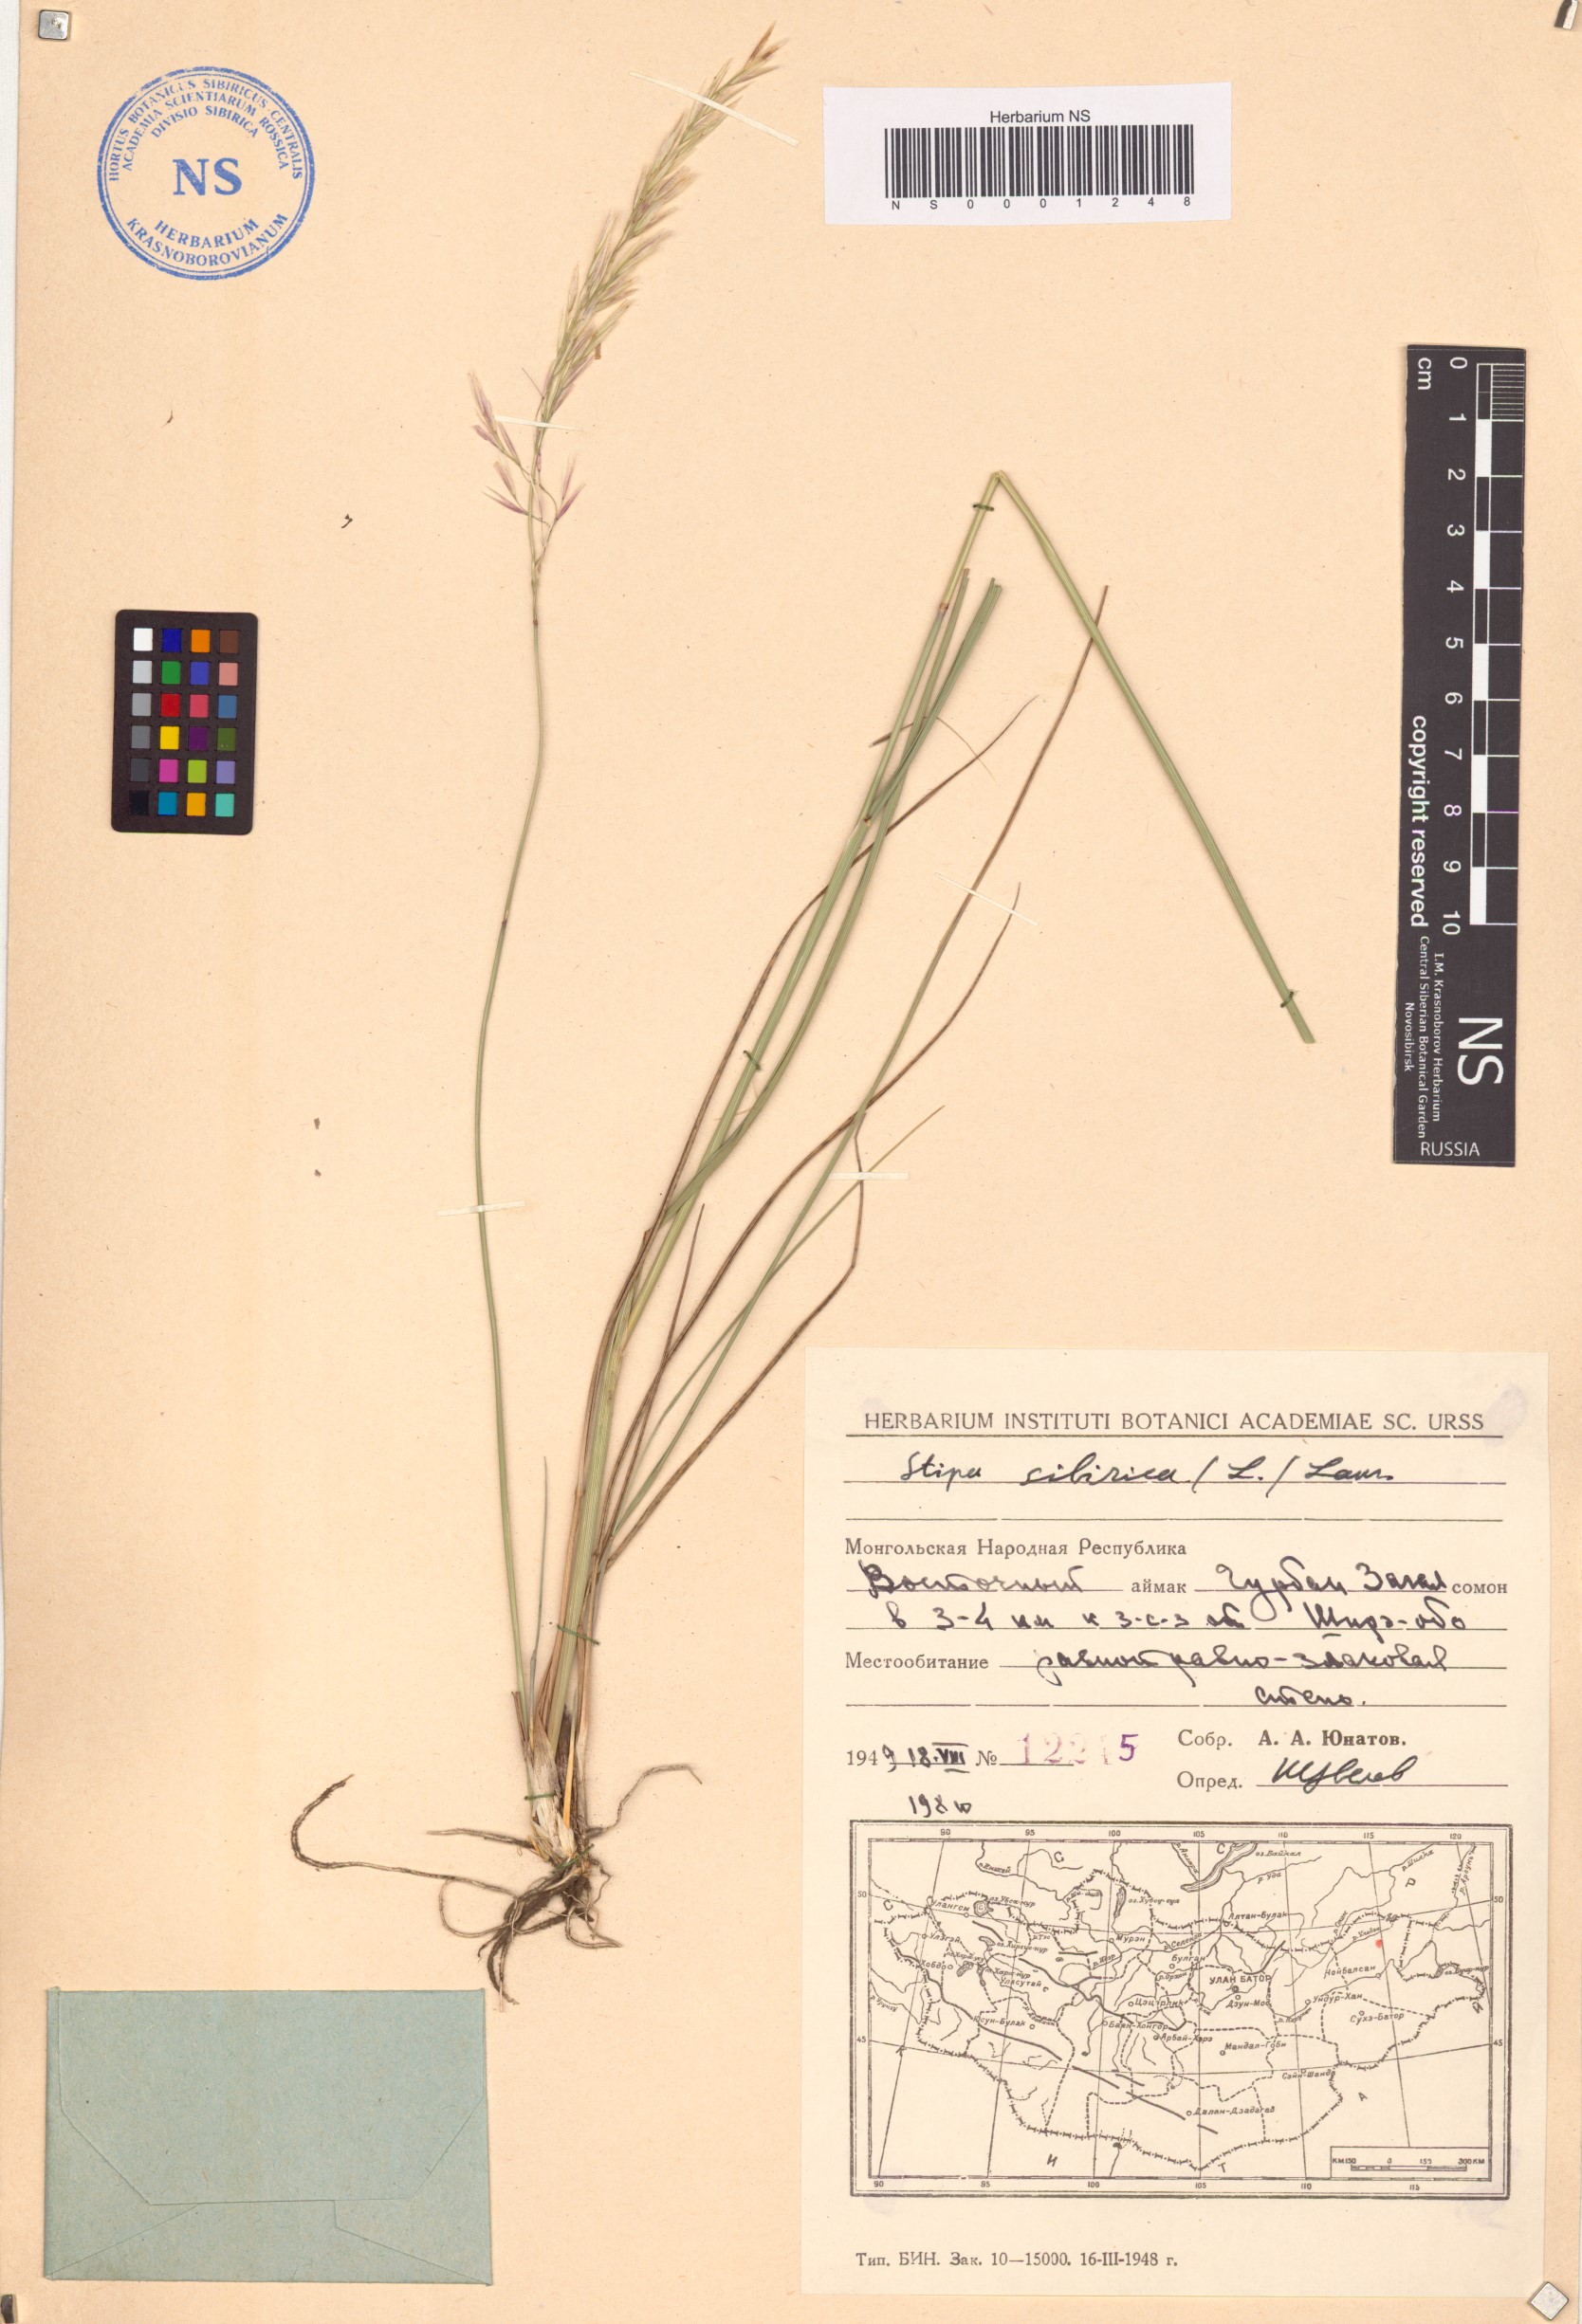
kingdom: Plantae
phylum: Tracheophyta
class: Liliopsida
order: Poales
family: Poaceae
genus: Achnatherum
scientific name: Achnatherum sibiricum
